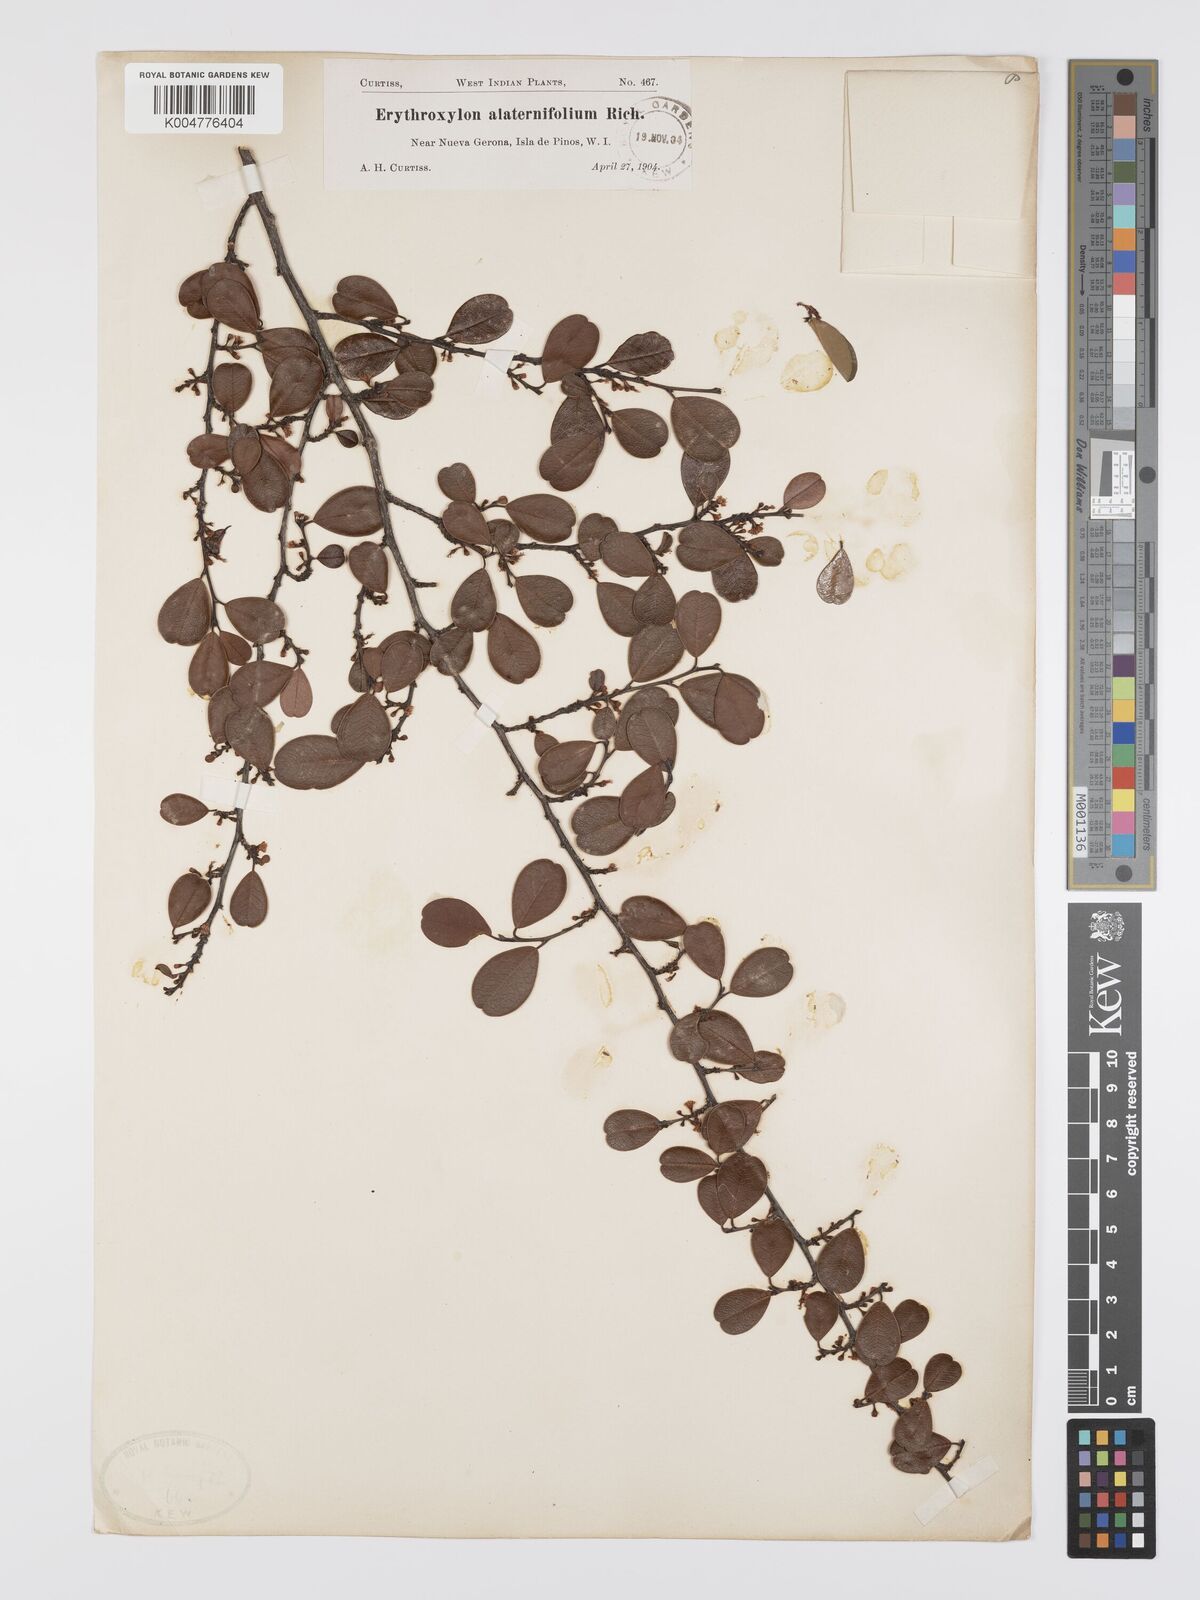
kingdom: Plantae
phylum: Tracheophyta
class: Magnoliopsida
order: Malpighiales
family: Erythroxylaceae
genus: Erythroxylum
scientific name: Erythroxylum alaternifolium
